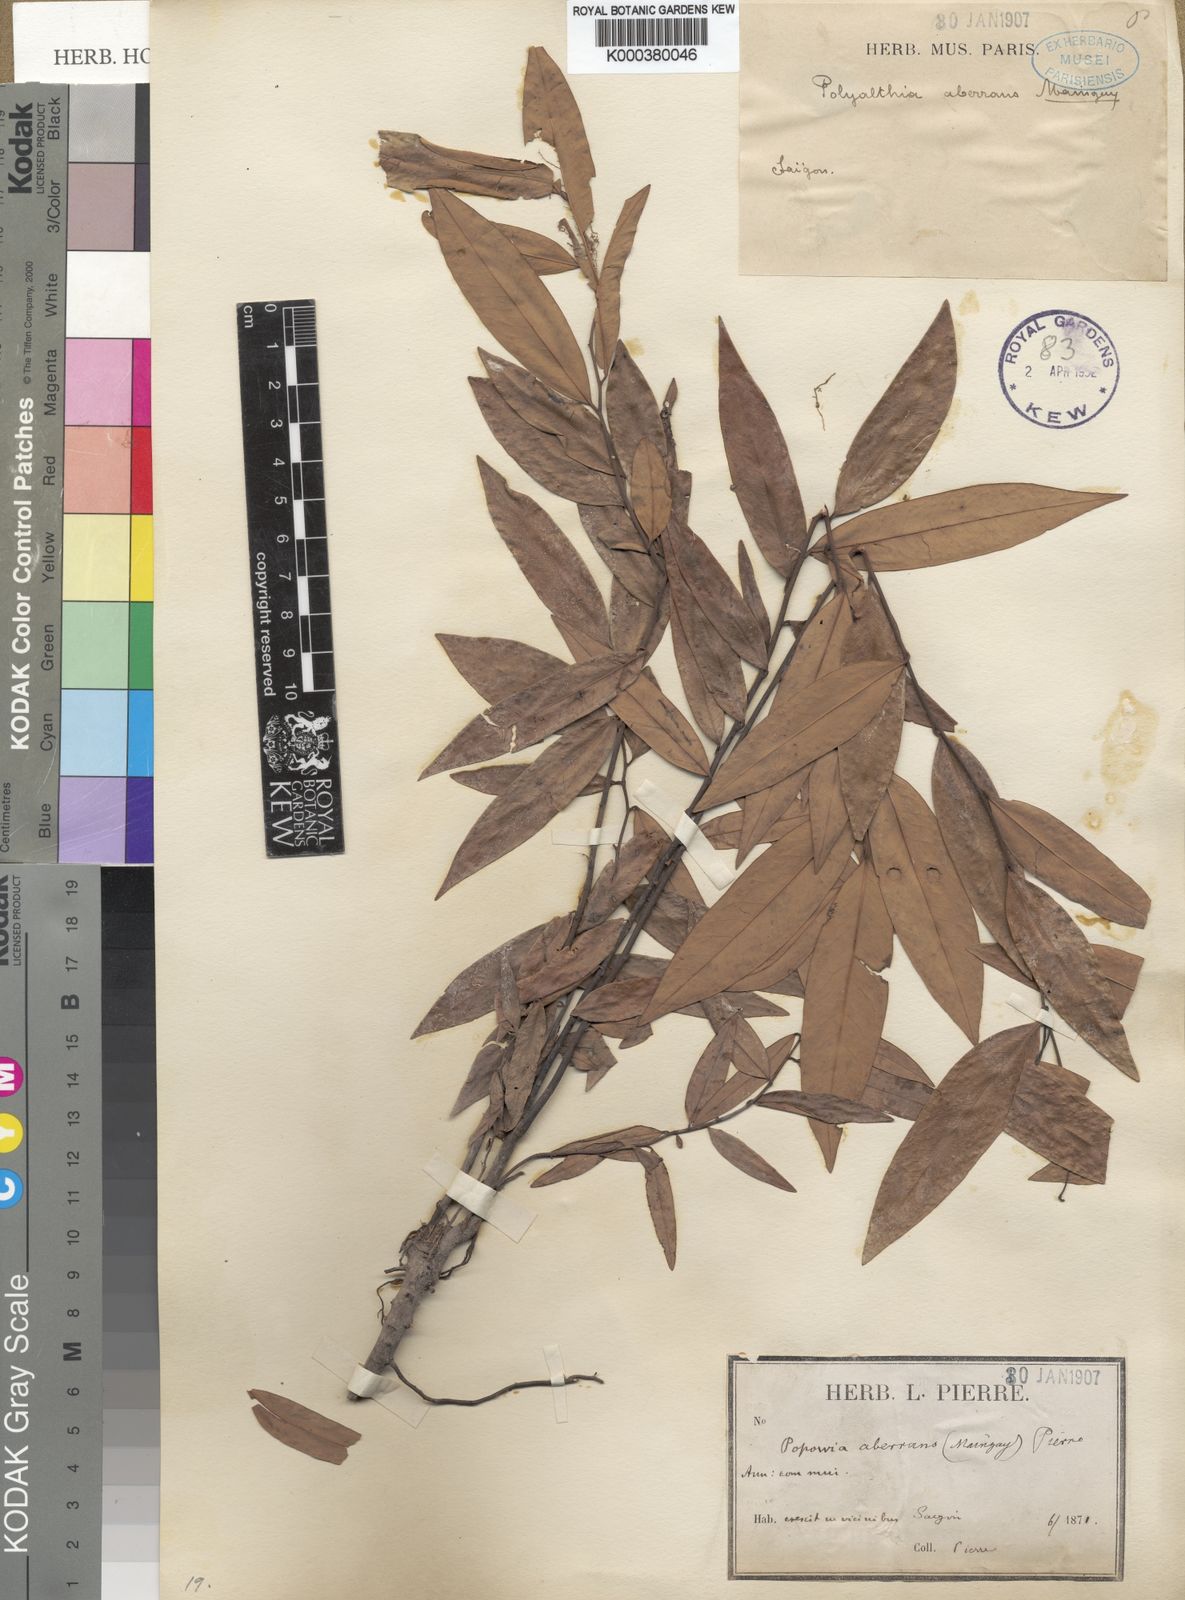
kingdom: Plantae
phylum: Tracheophyta
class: Magnoliopsida
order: Magnoliales
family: Annonaceae
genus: Sphaerocoryne
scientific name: Sphaerocoryne affinis
